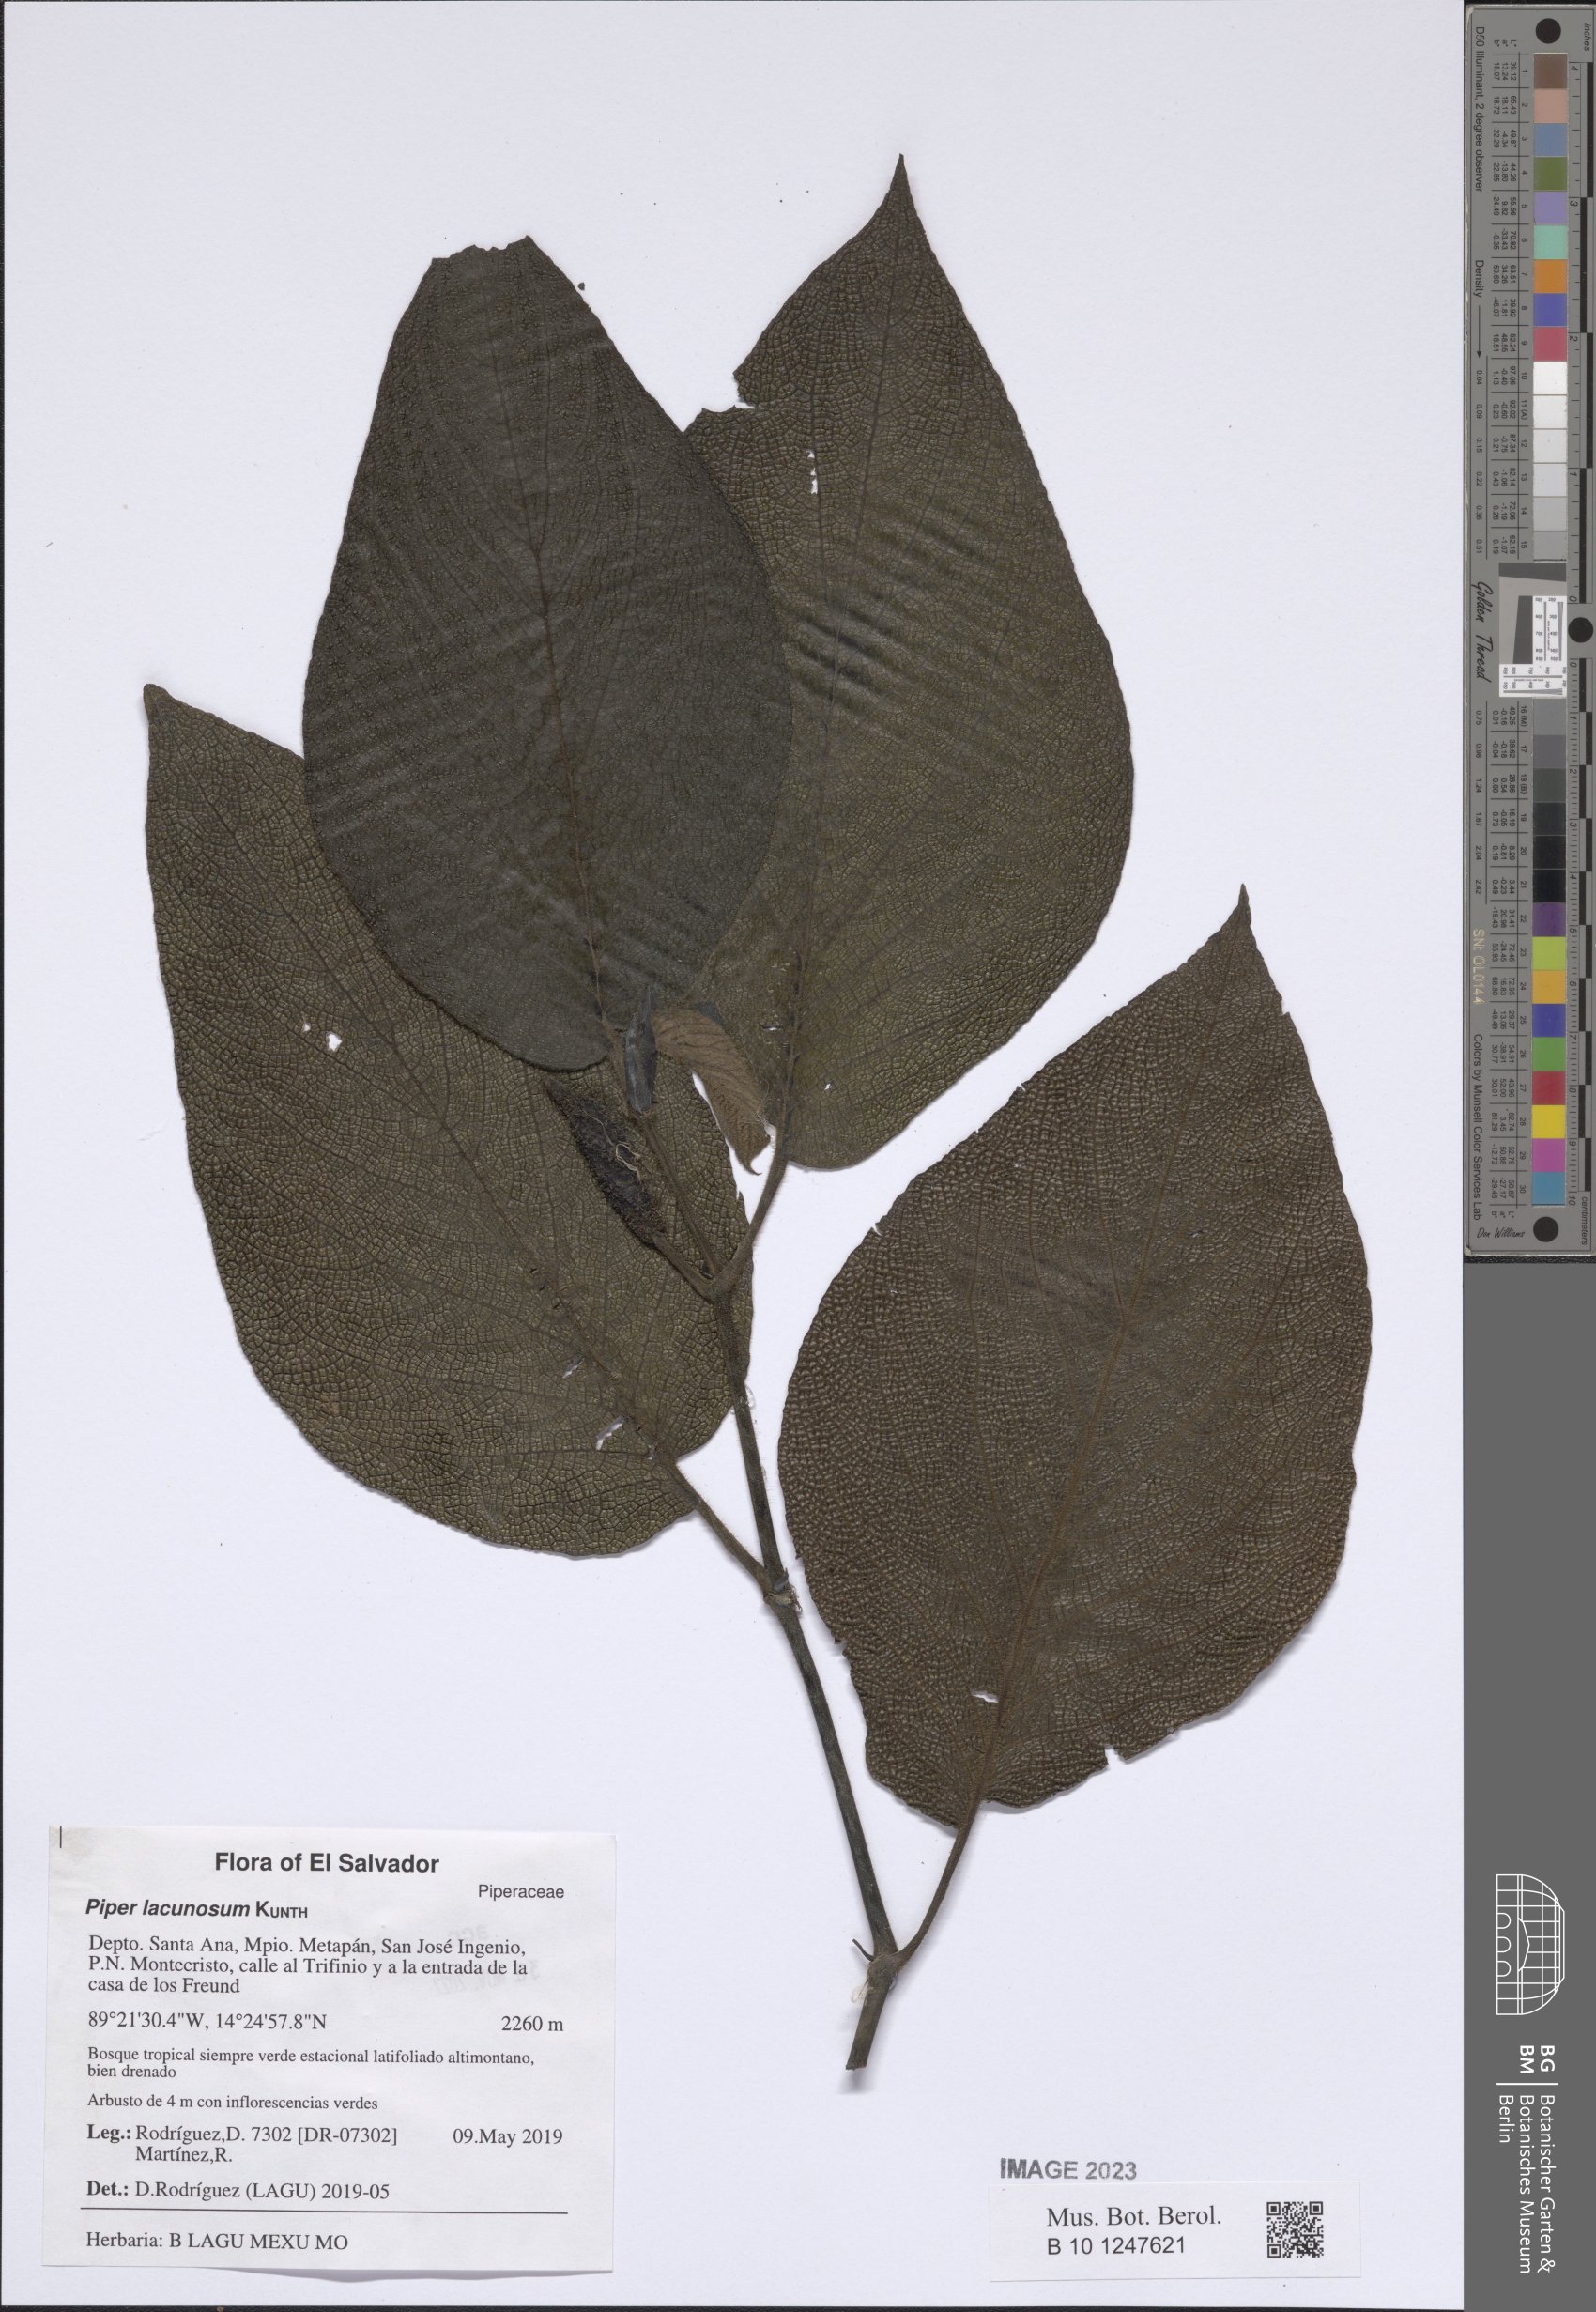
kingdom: Plantae
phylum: Tracheophyta
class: Magnoliopsida
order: Piperales
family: Piperaceae
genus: Piper
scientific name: Piper lacunosum
